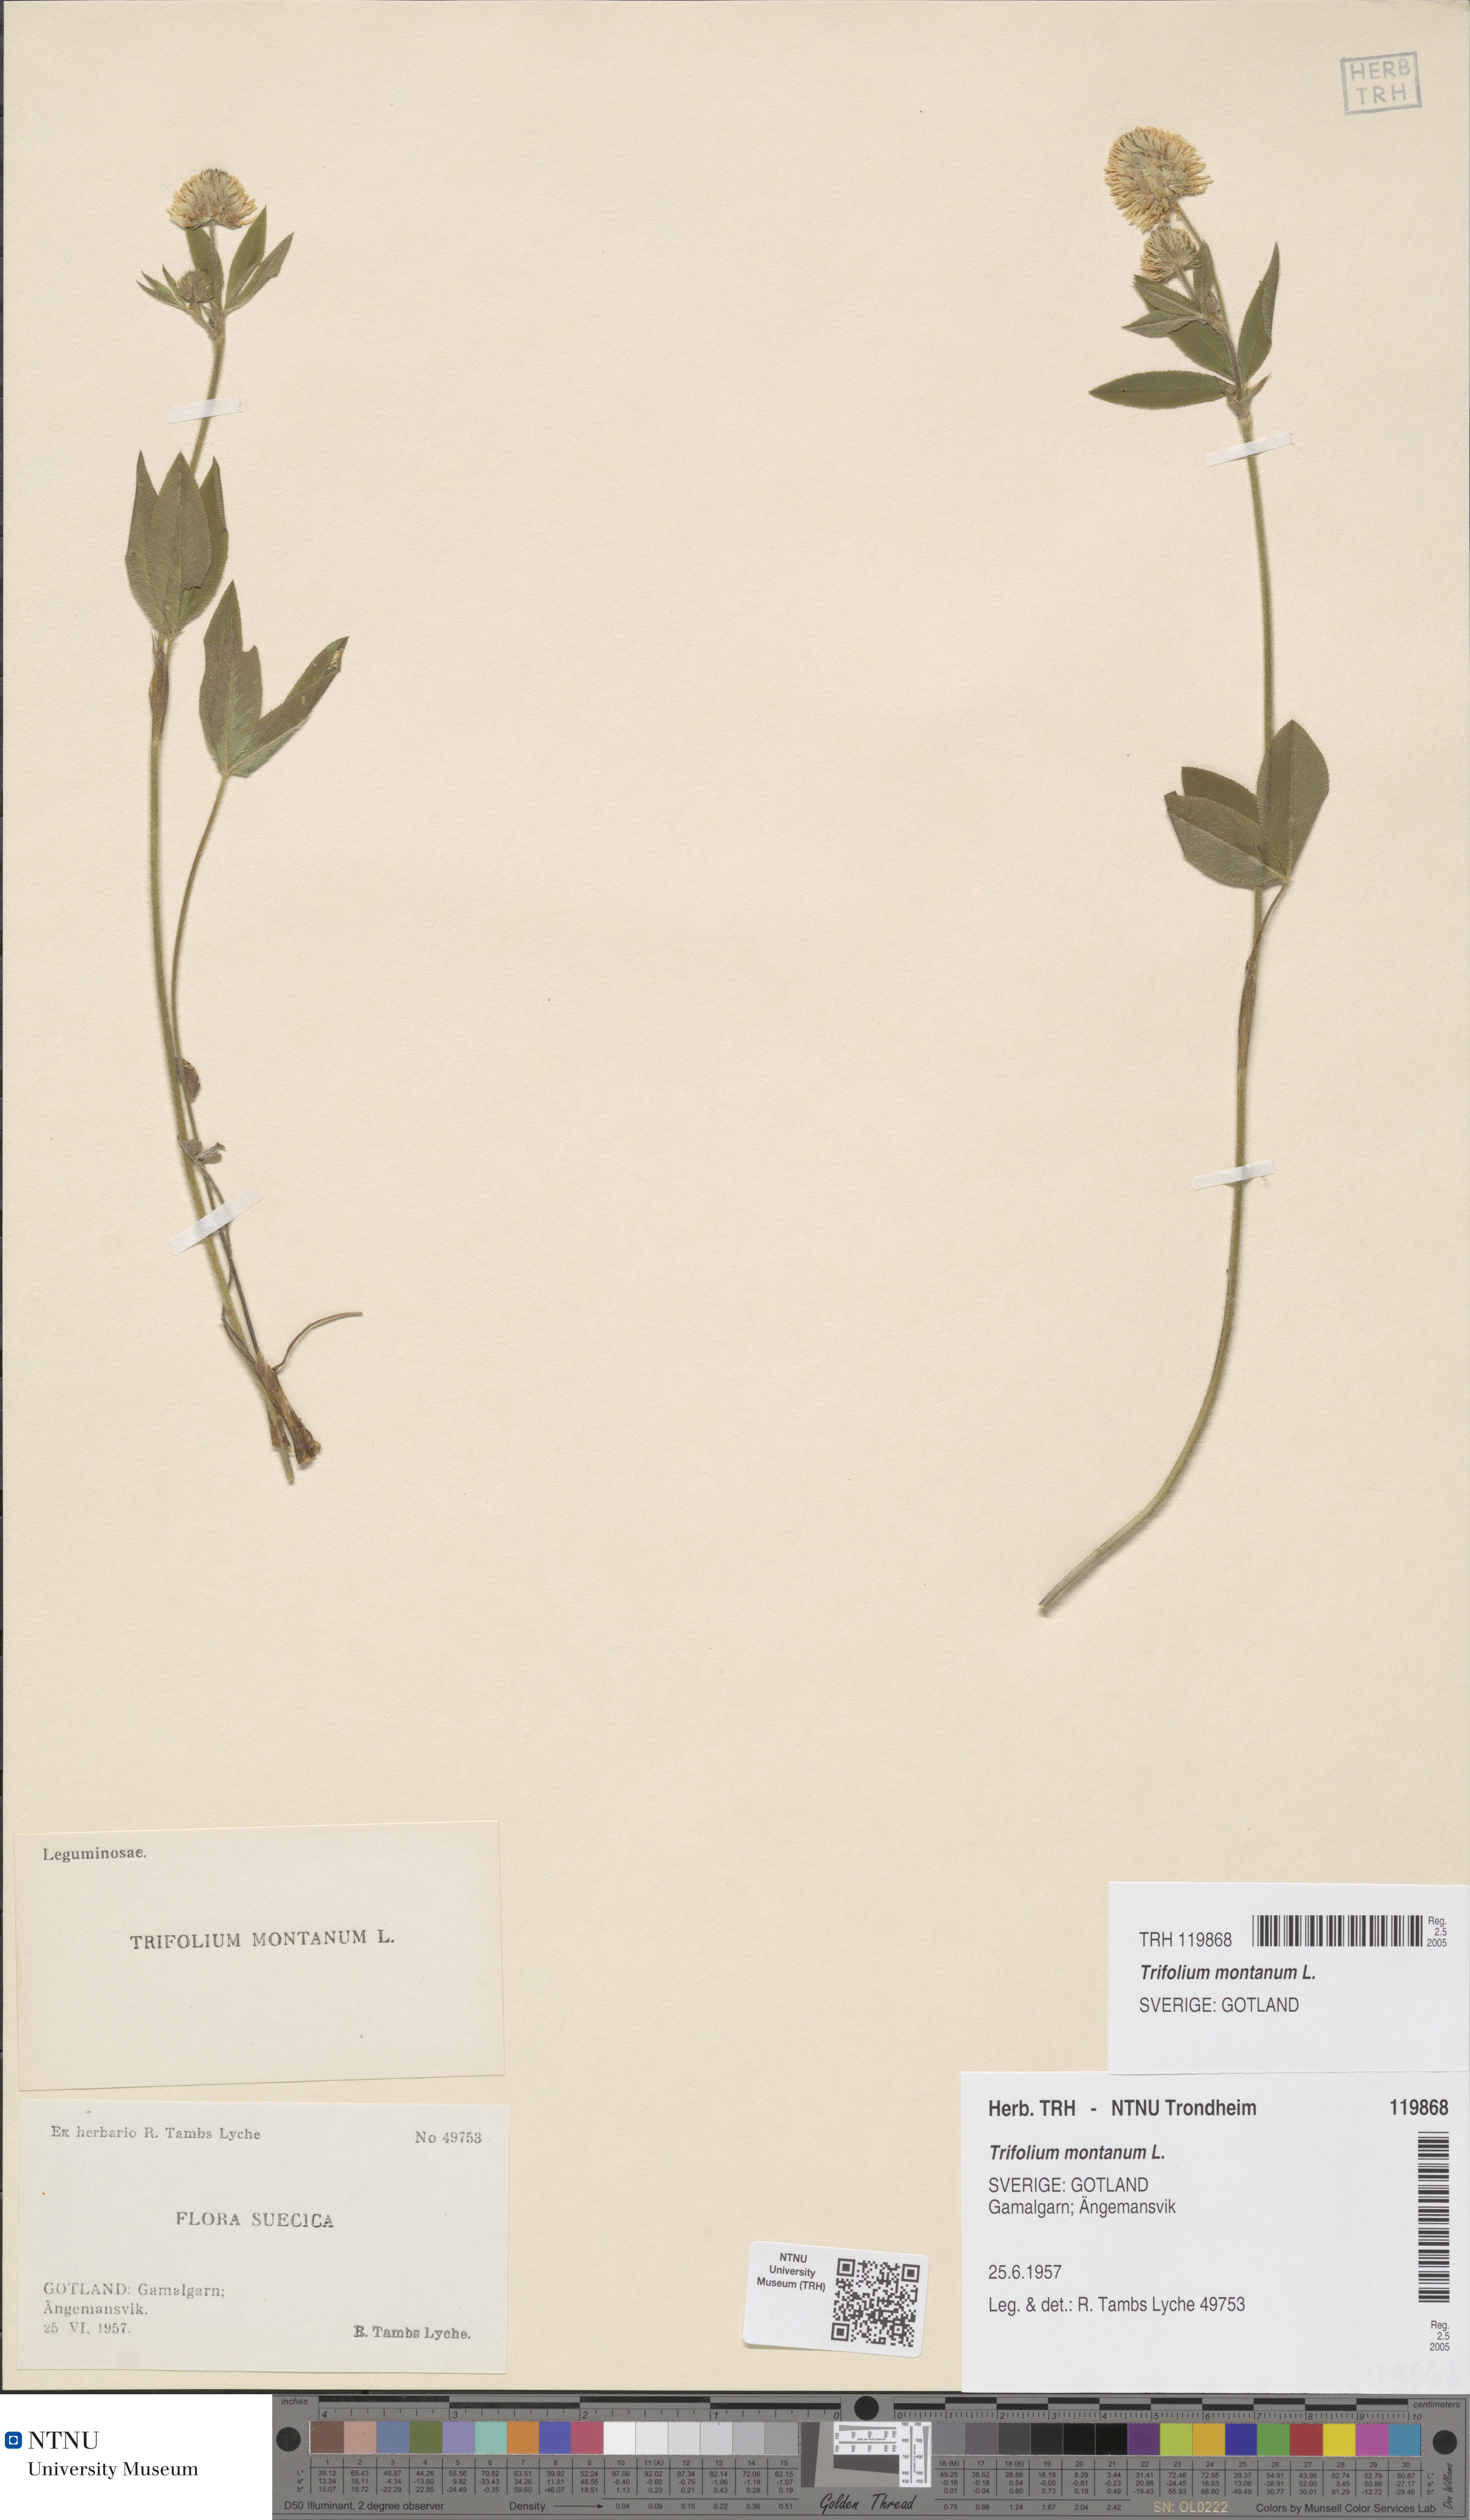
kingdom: Plantae
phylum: Tracheophyta
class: Magnoliopsida
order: Fabales
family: Fabaceae
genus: Trifolium
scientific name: Trifolium montanum
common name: Mountain clover
